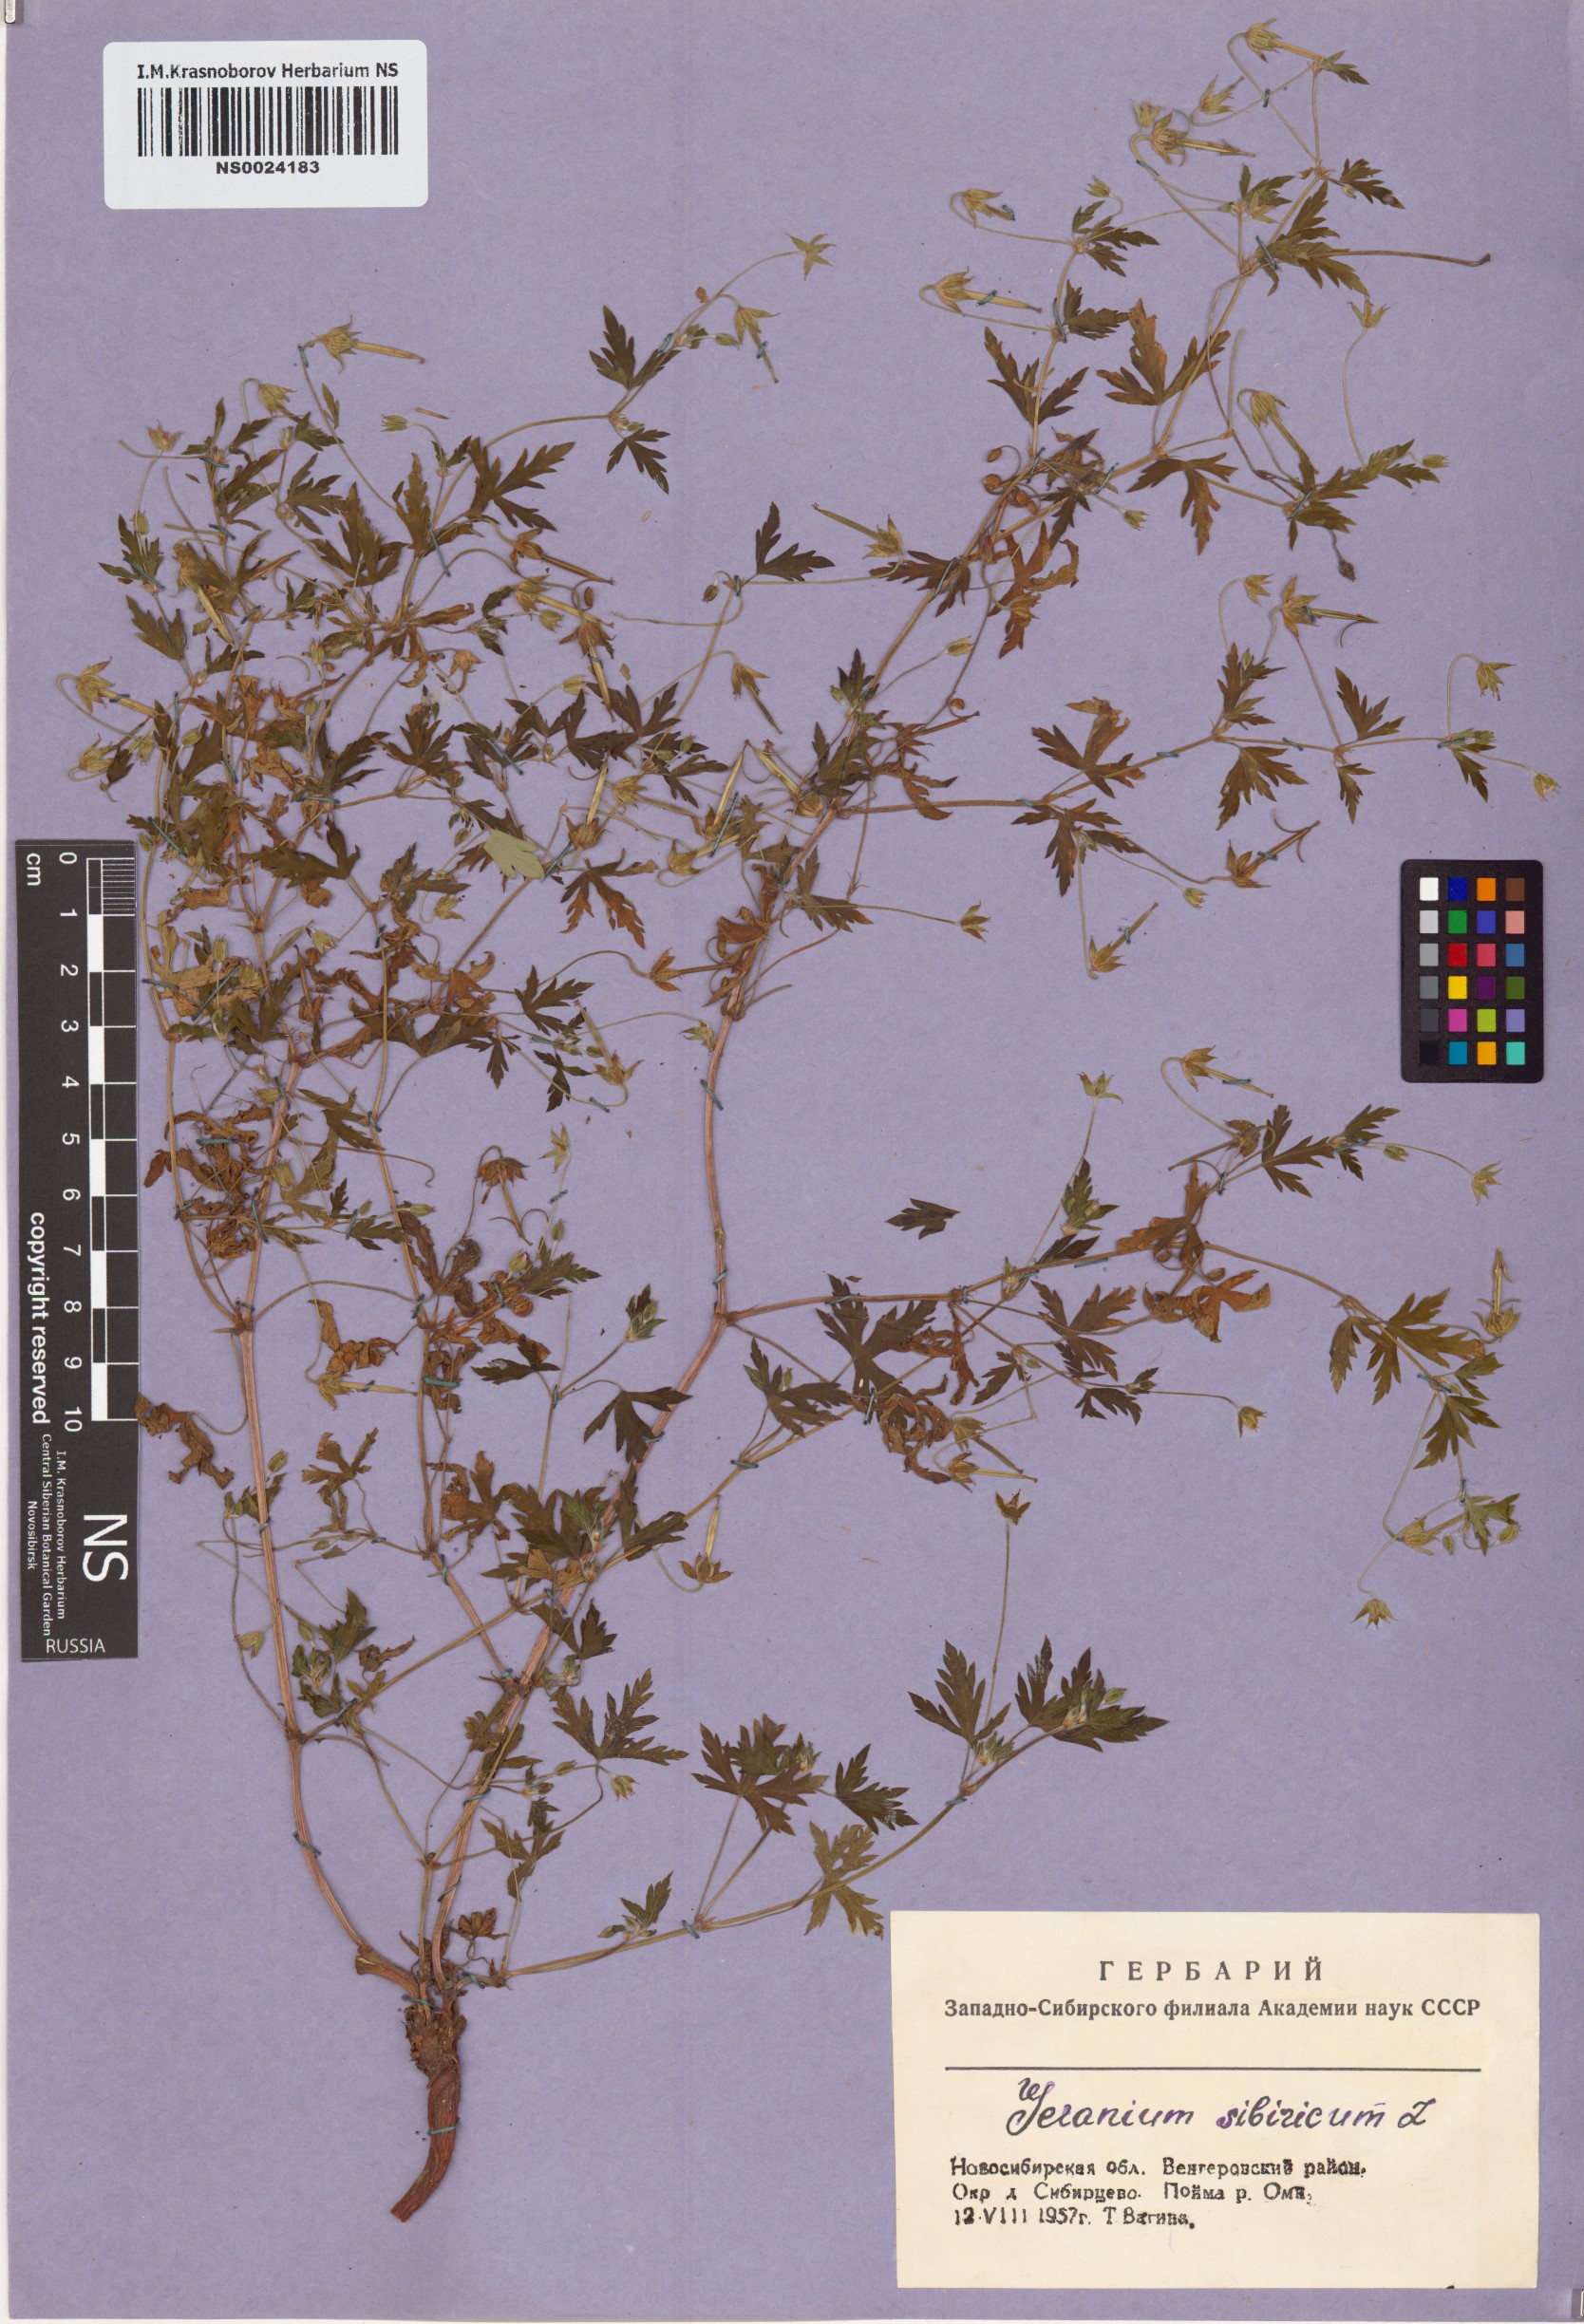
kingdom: Plantae
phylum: Tracheophyta
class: Magnoliopsida
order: Geraniales
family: Geraniaceae
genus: Geranium
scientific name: Geranium sibiricum
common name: Siberian crane's-bill
